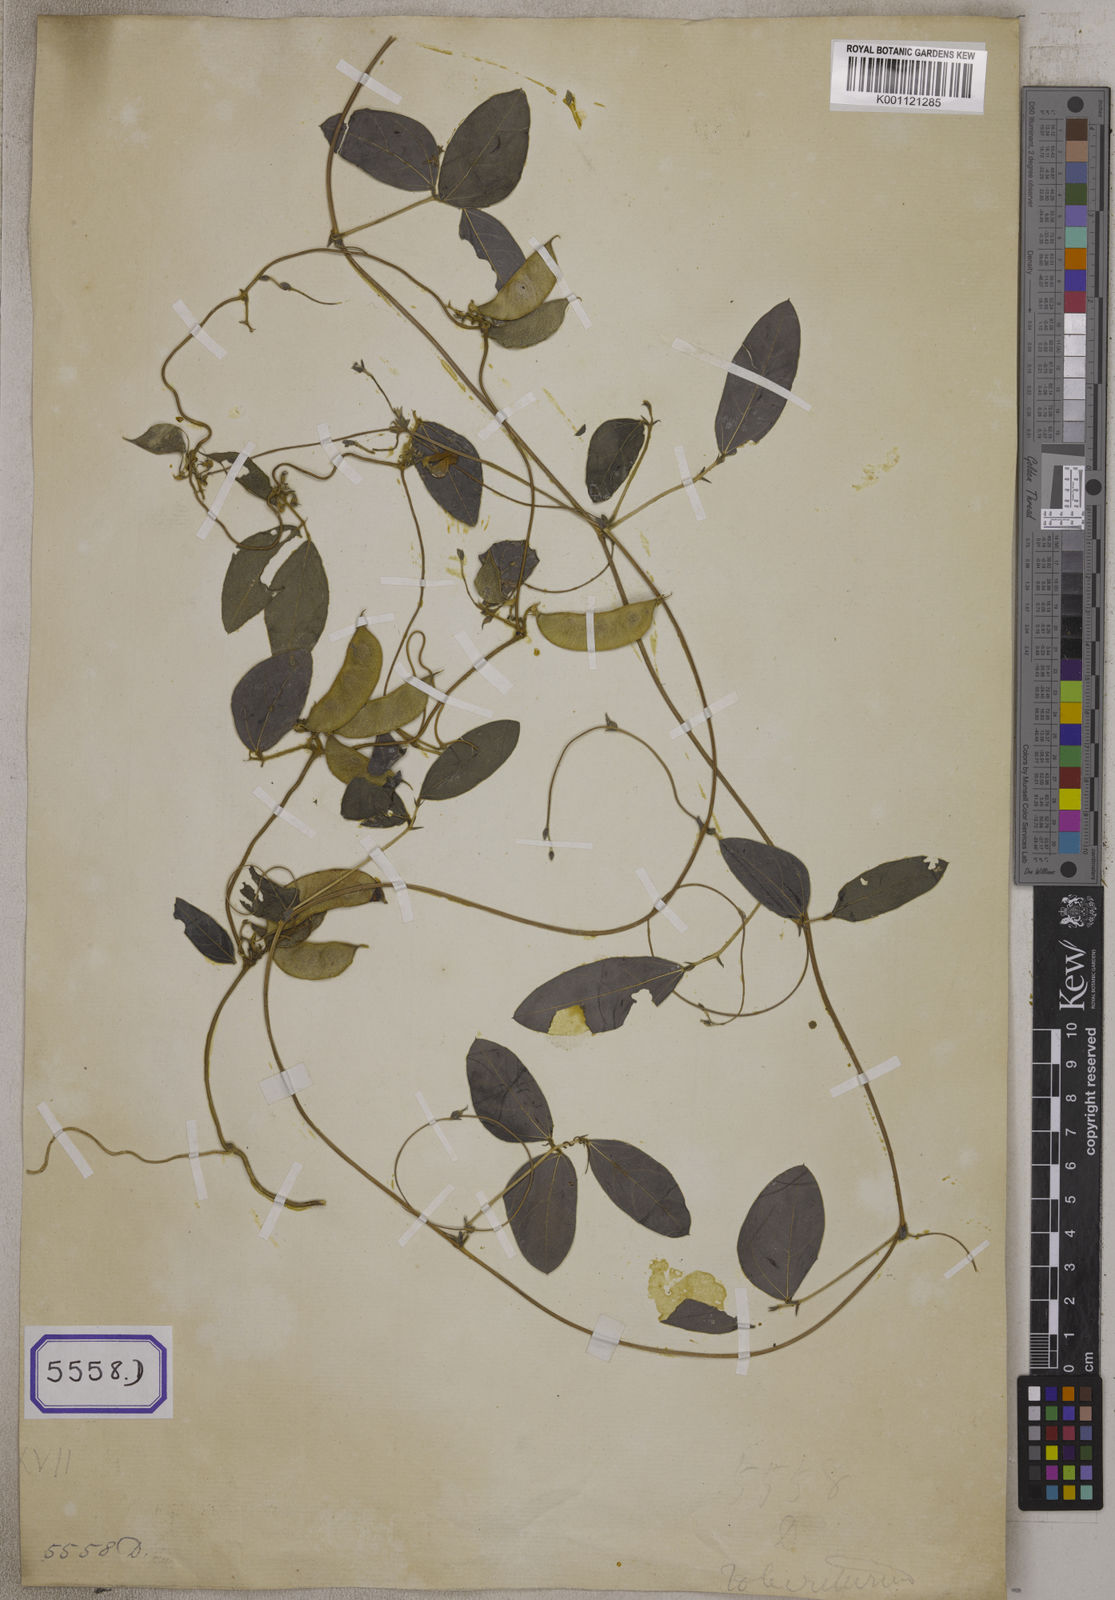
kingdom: Plantae
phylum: Tracheophyta
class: Magnoliopsida
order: Fabales
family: Fabaceae
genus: Macrotyloma
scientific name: Macrotyloma ciliatum
